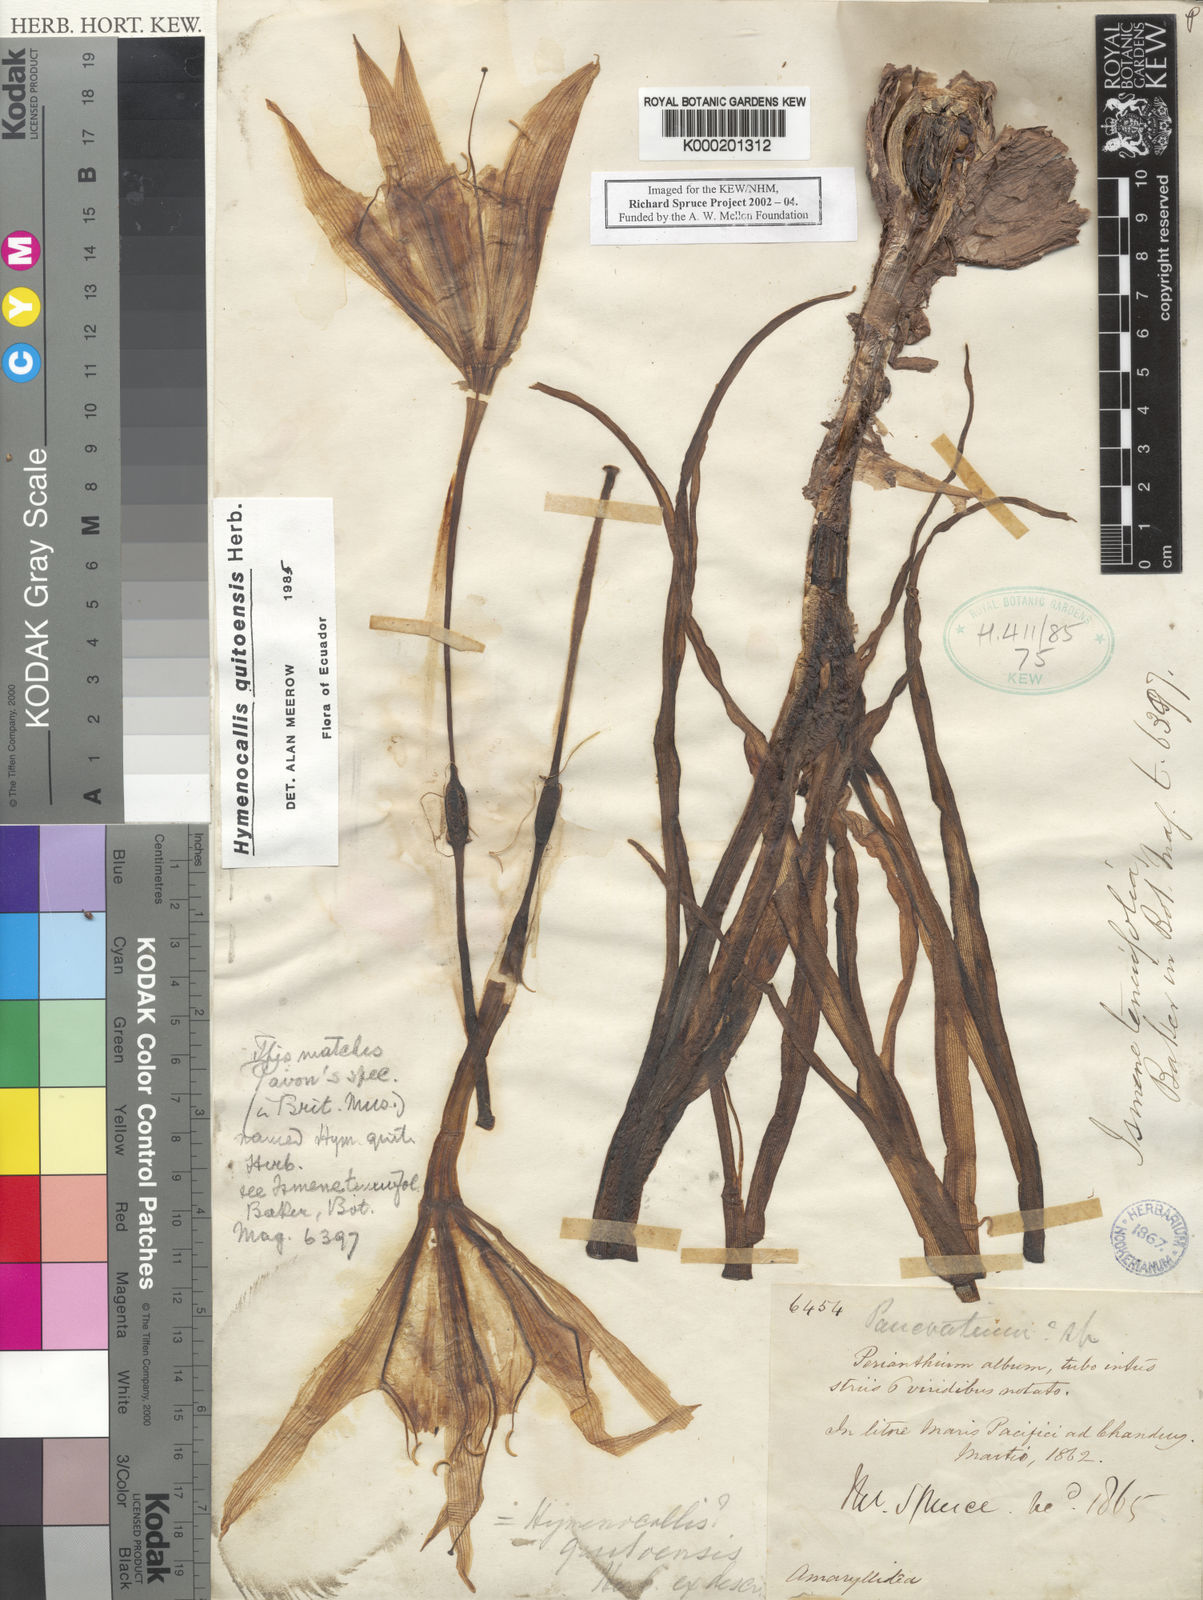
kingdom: Plantae
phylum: Tracheophyta
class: Liliopsida
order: Asparagales
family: Amaryllidaceae
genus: Leptochiton
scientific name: Leptochiton quitoensis
